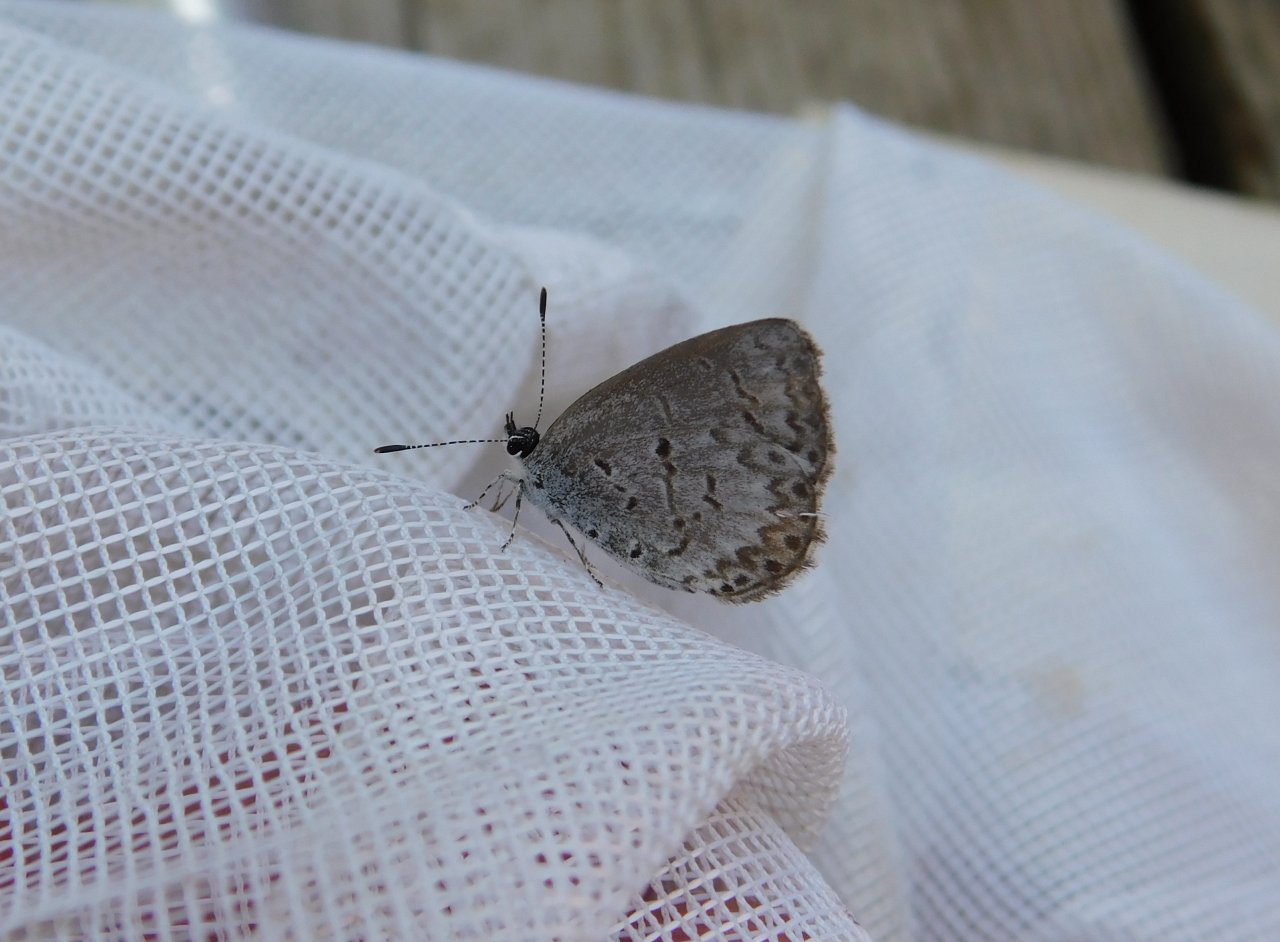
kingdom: Animalia
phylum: Arthropoda
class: Insecta
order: Lepidoptera
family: Lycaenidae
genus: Celastrina
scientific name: Celastrina lucia
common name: Northern Spring Azure
